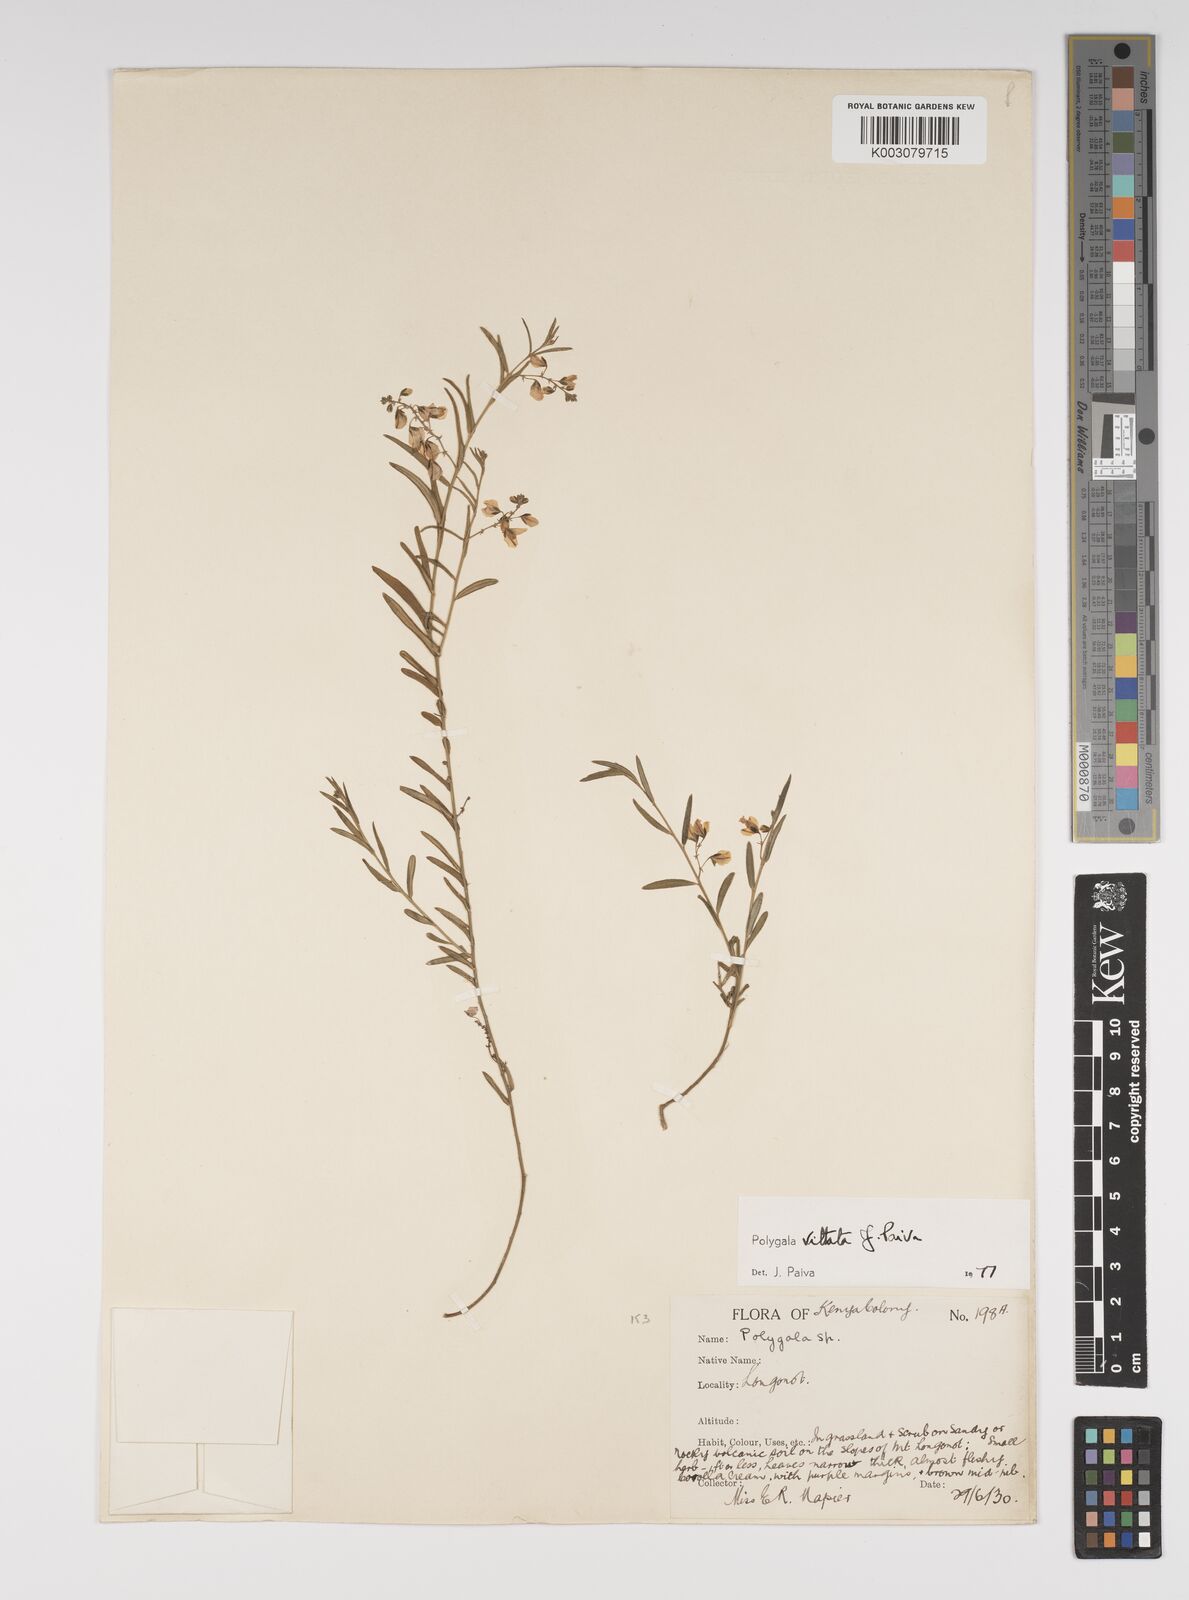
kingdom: Plantae
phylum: Tracheophyta
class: Magnoliopsida
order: Fabales
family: Polygalaceae
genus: Polygala
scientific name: Polygala vittata
